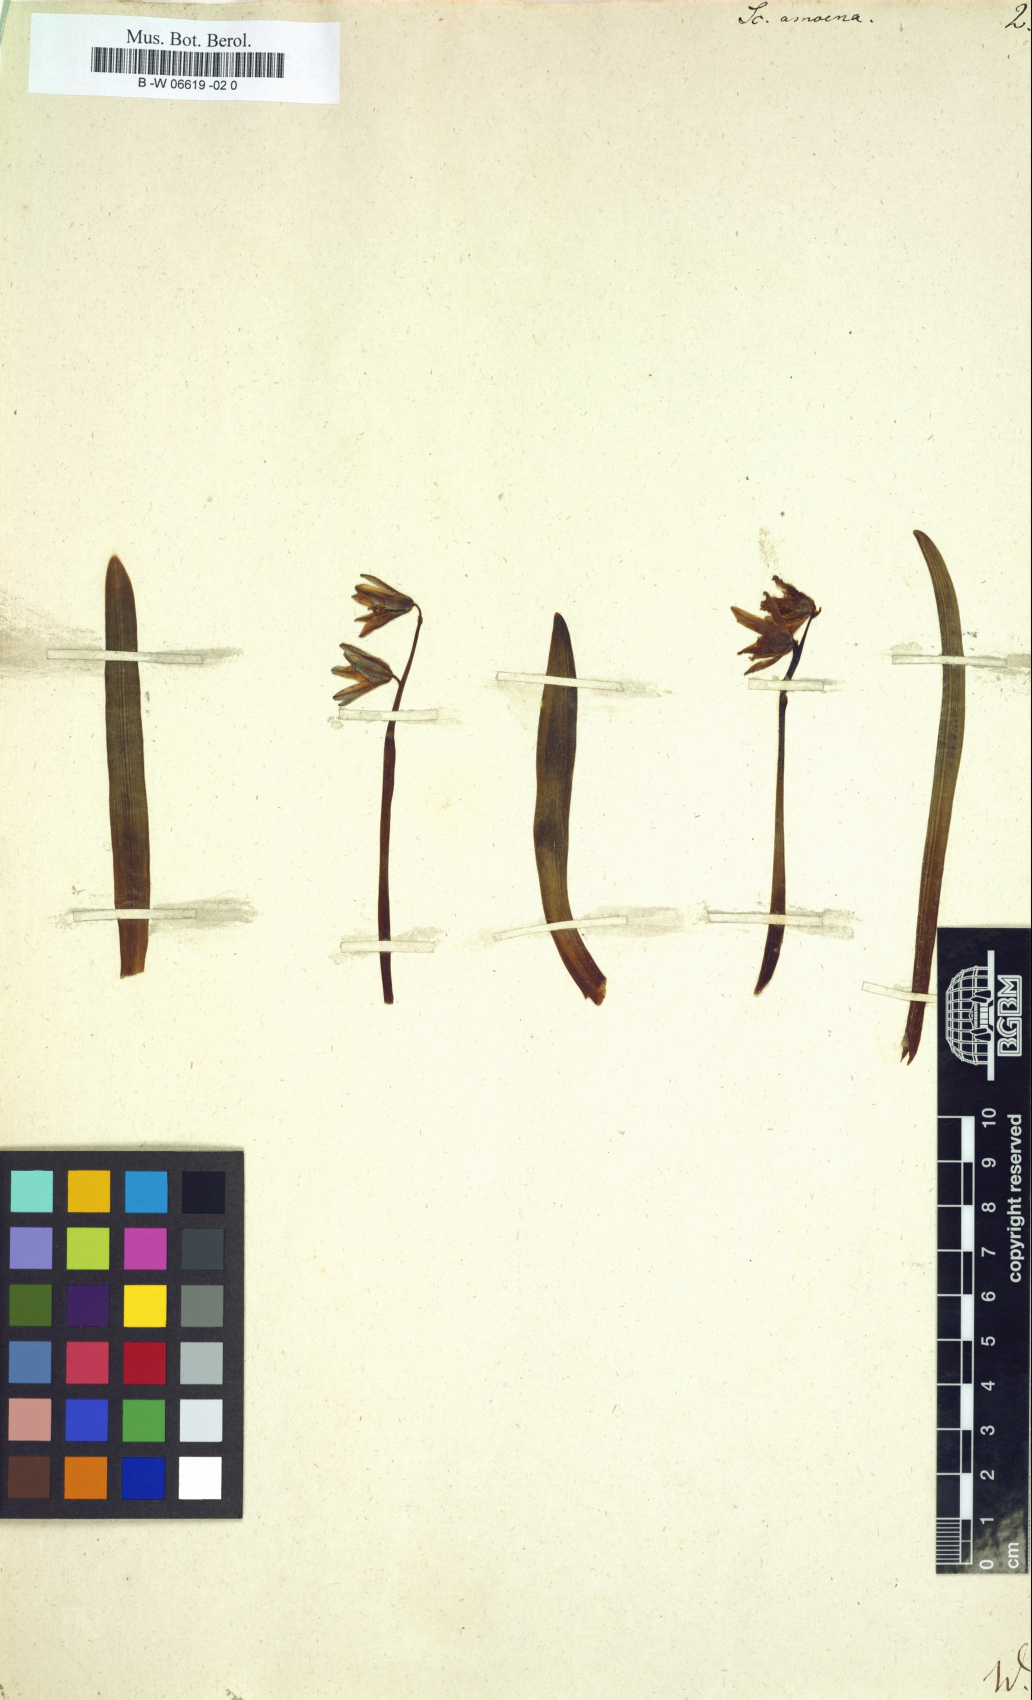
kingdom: Plantae
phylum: Tracheophyta
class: Liliopsida
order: Asparagales
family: Asparagaceae
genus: Scilla
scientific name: Scilla amoena
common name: Star-hyacinth
